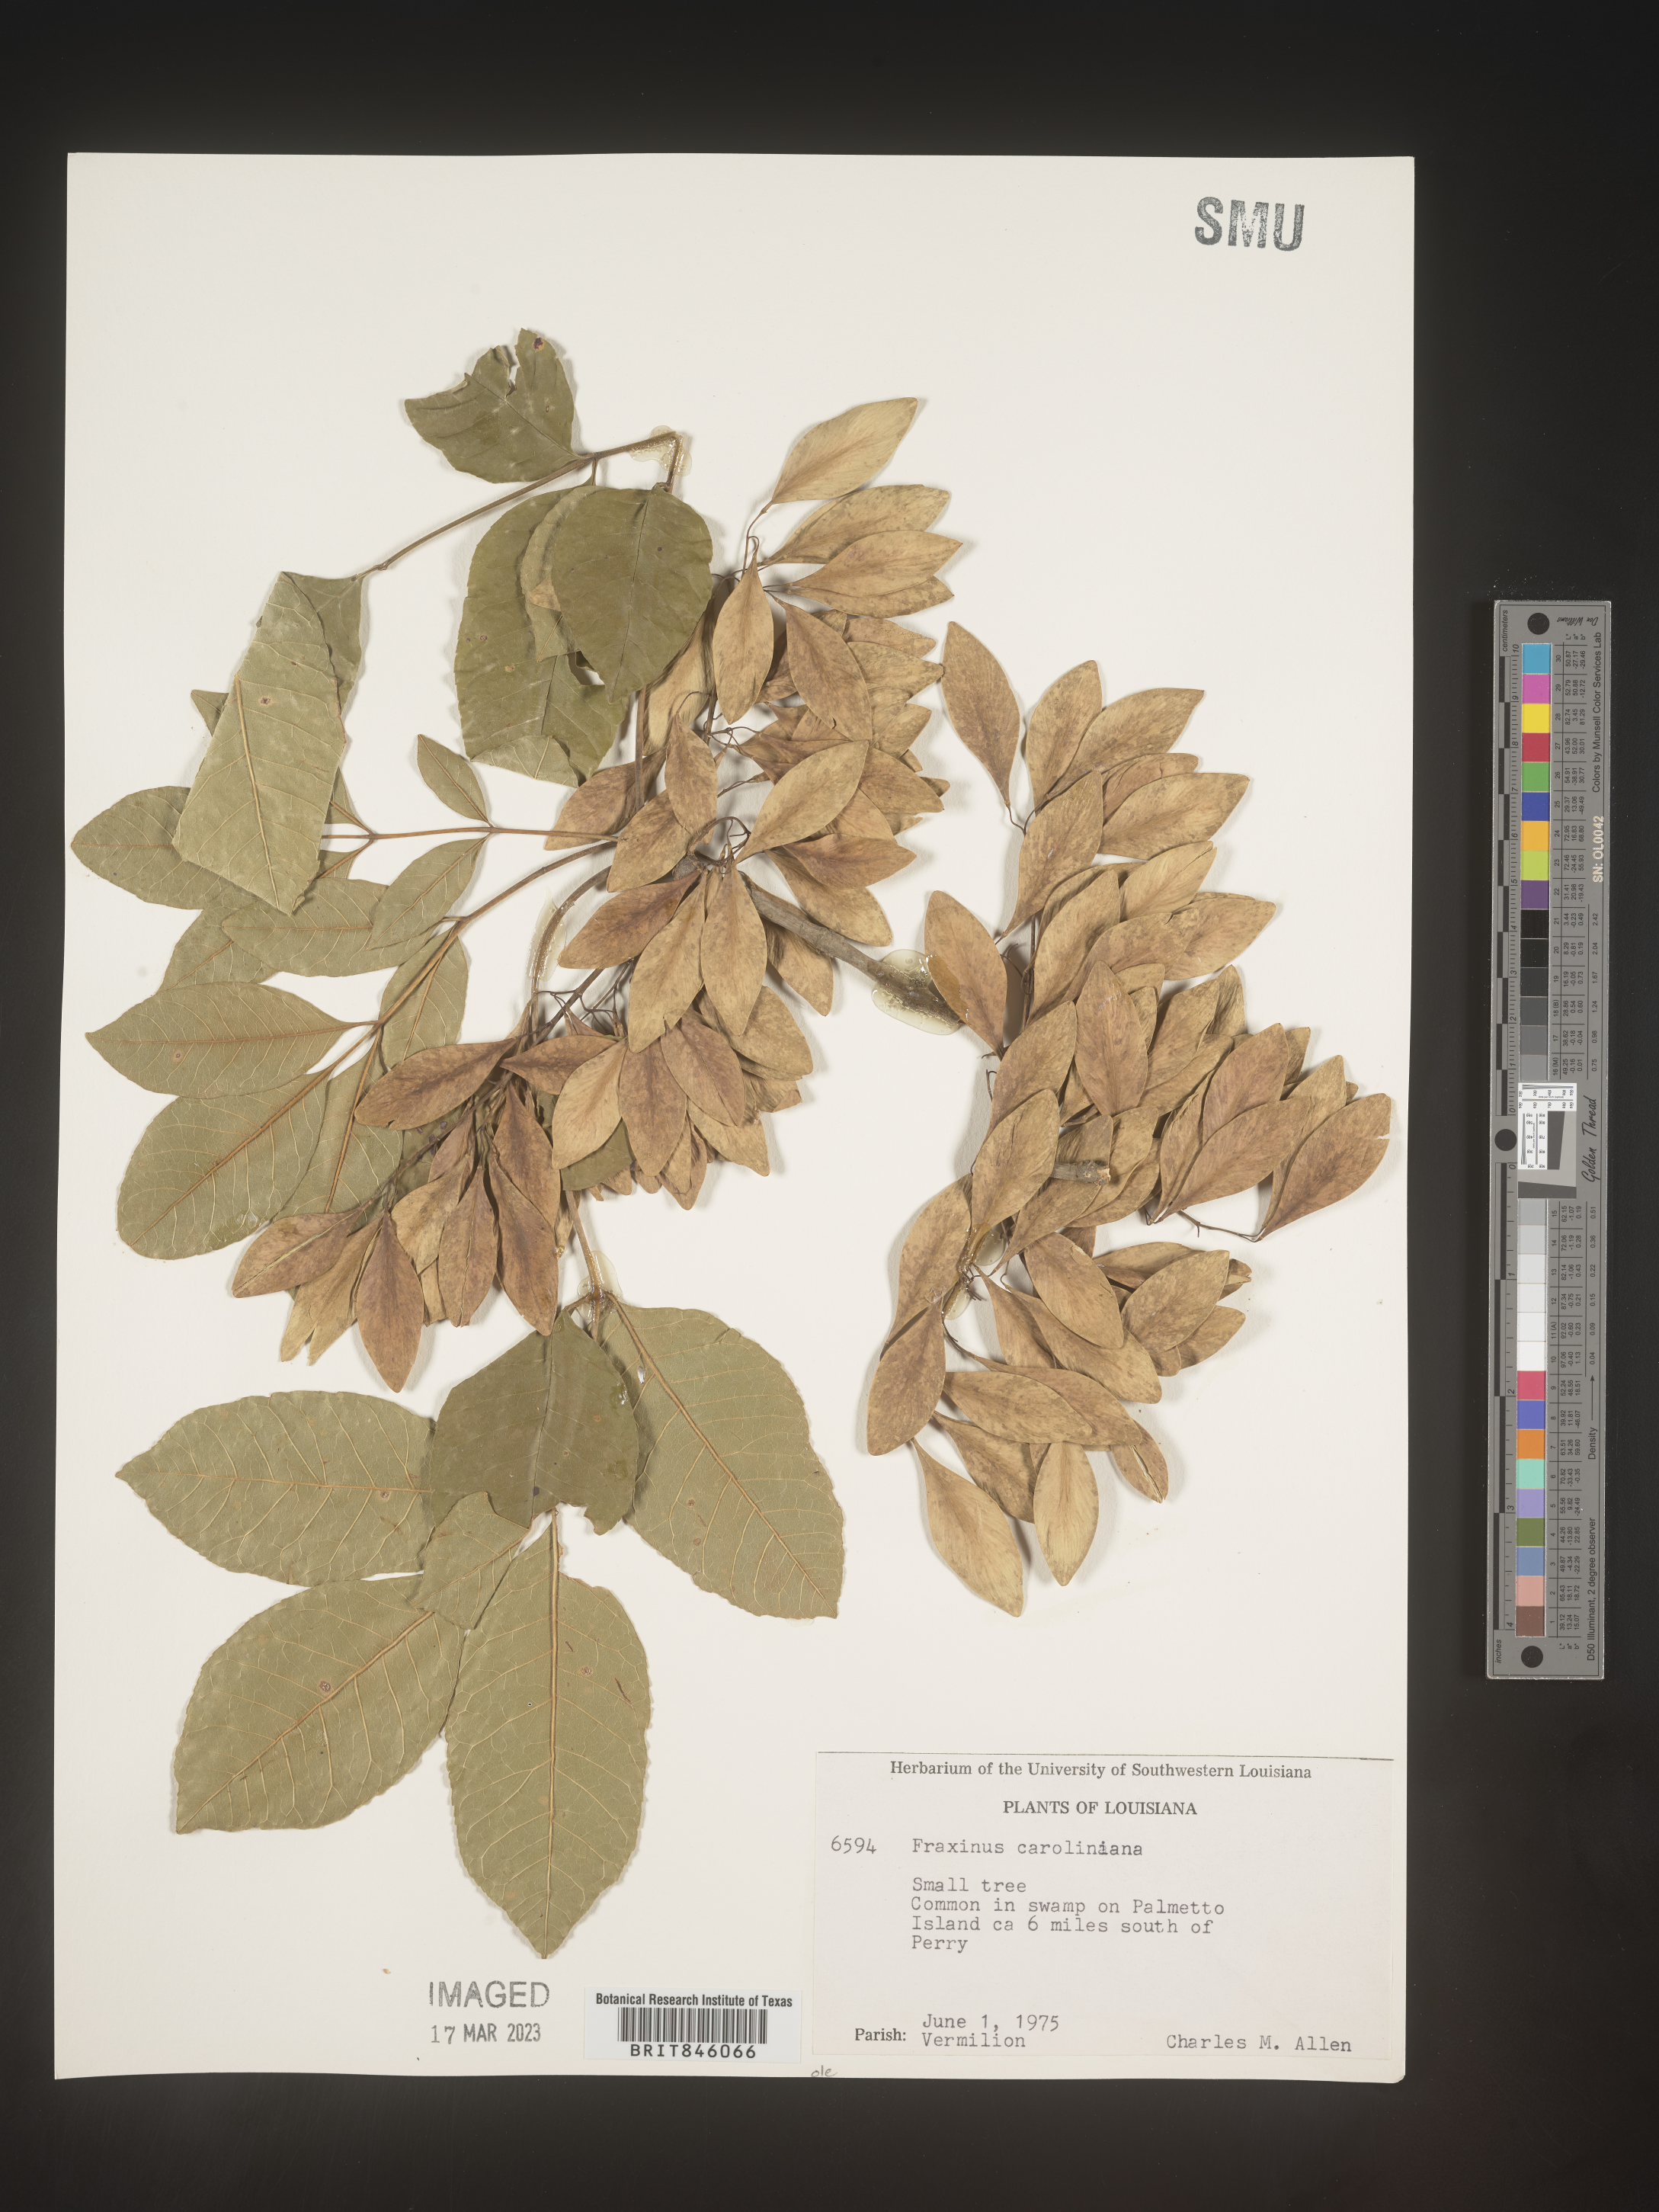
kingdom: Plantae
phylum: Tracheophyta
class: Magnoliopsida
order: Lamiales
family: Oleaceae
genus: Fraxinus
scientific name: Fraxinus caroliniana
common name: Carolina ash
